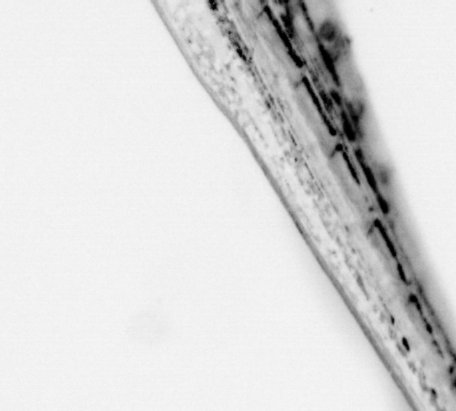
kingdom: Animalia
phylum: Chordata
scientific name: Chordata
